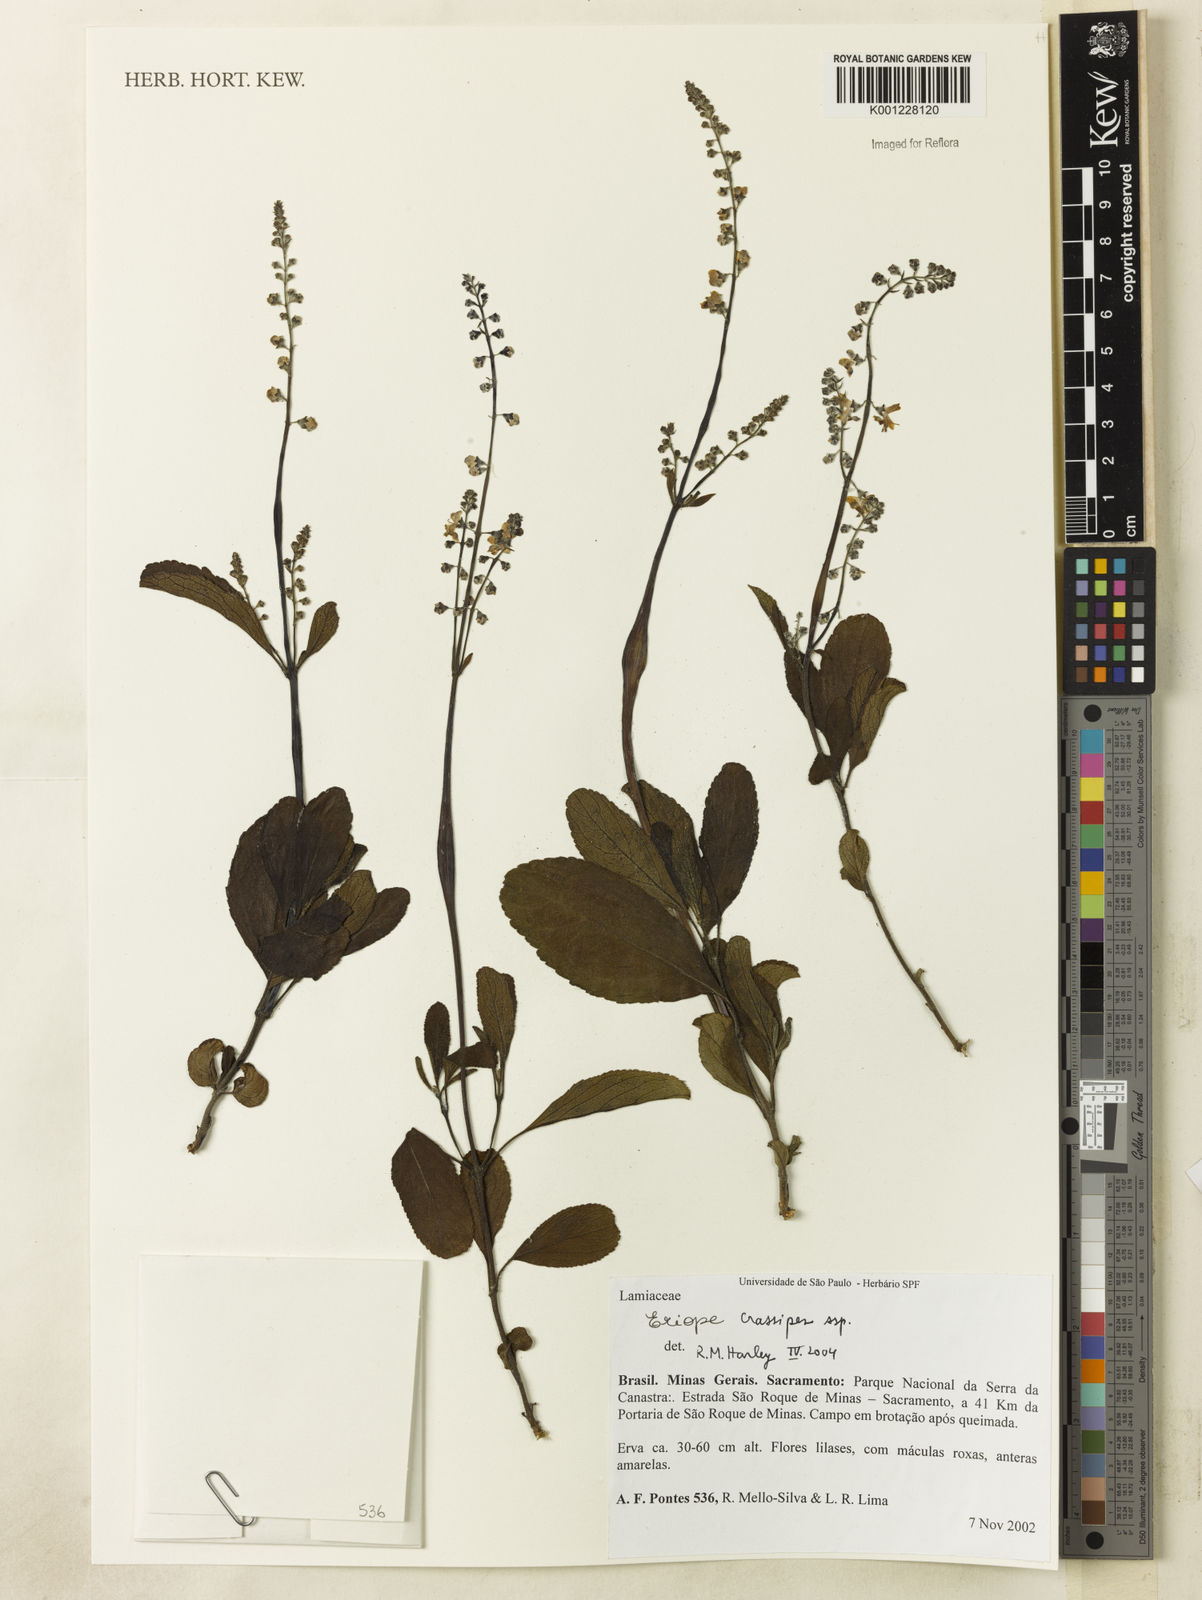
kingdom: Plantae
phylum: Tracheophyta
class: Magnoliopsida
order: Lamiales
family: Lamiaceae
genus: Eriope
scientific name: Eriope
